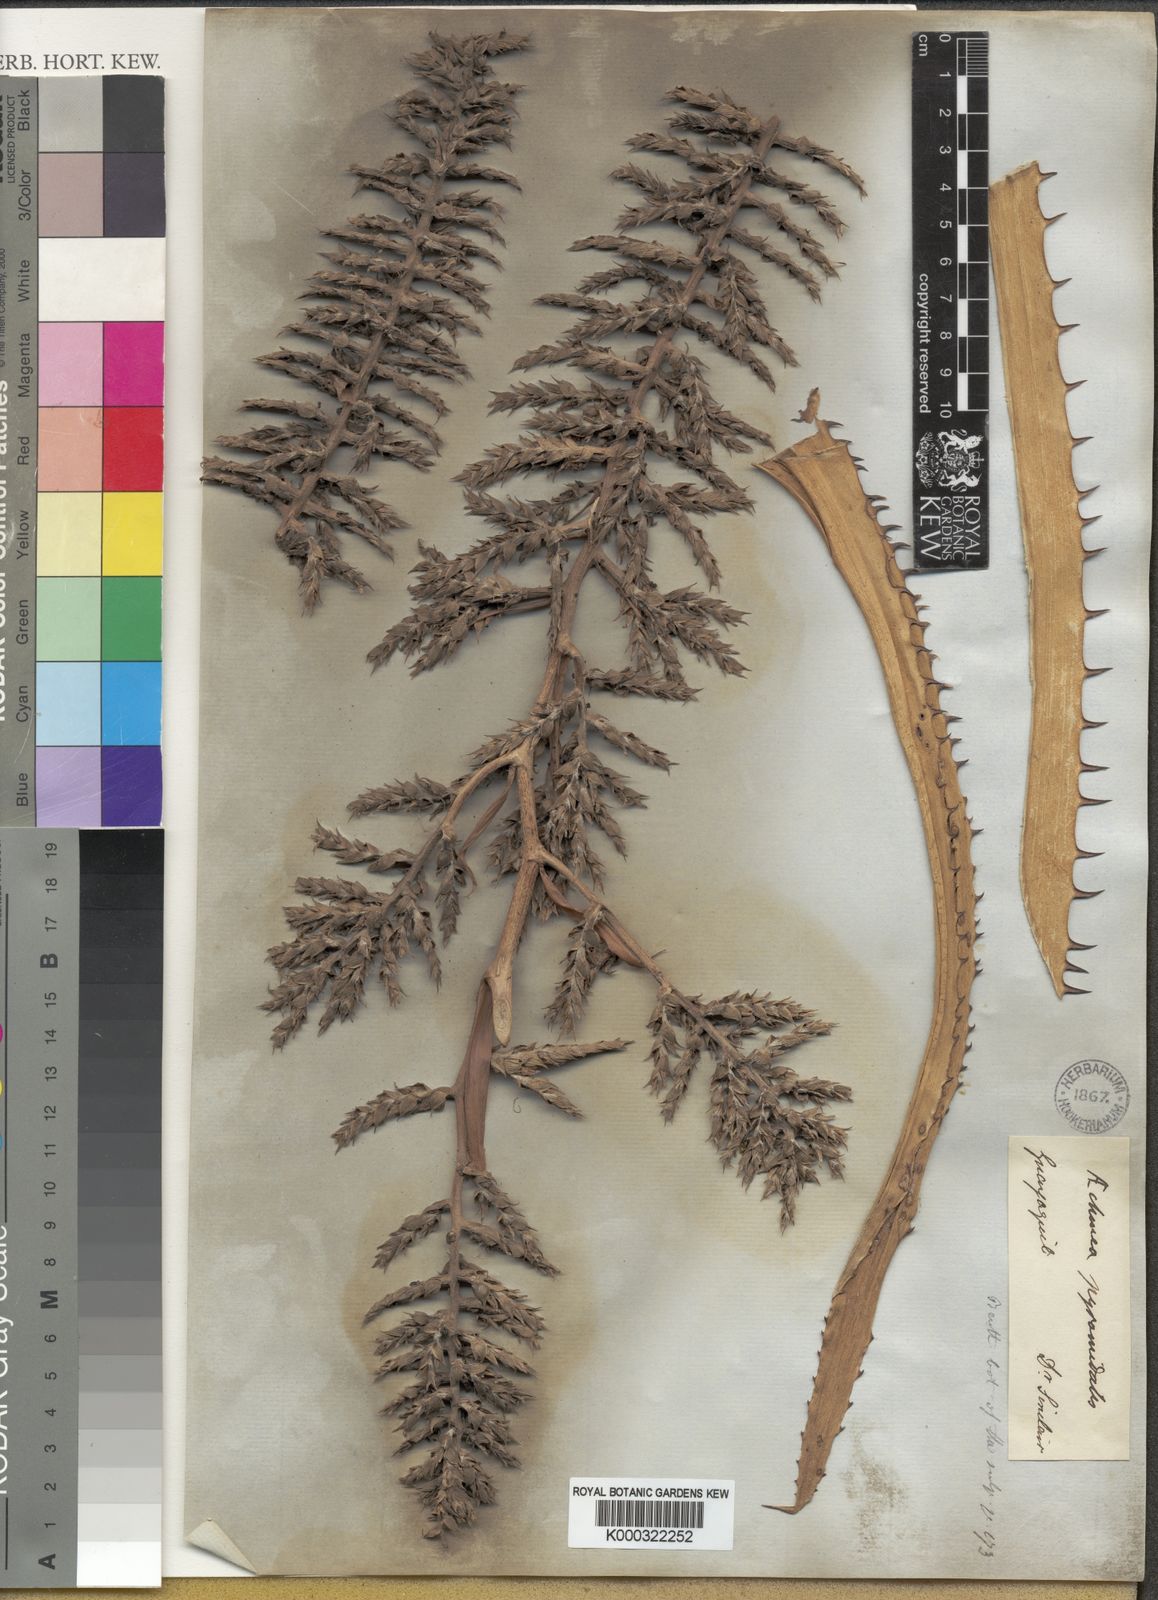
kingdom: Plantae
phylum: Tracheophyta
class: Liliopsida
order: Poales
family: Bromeliaceae
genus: Aechmea
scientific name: Aechmea pyramidalis
